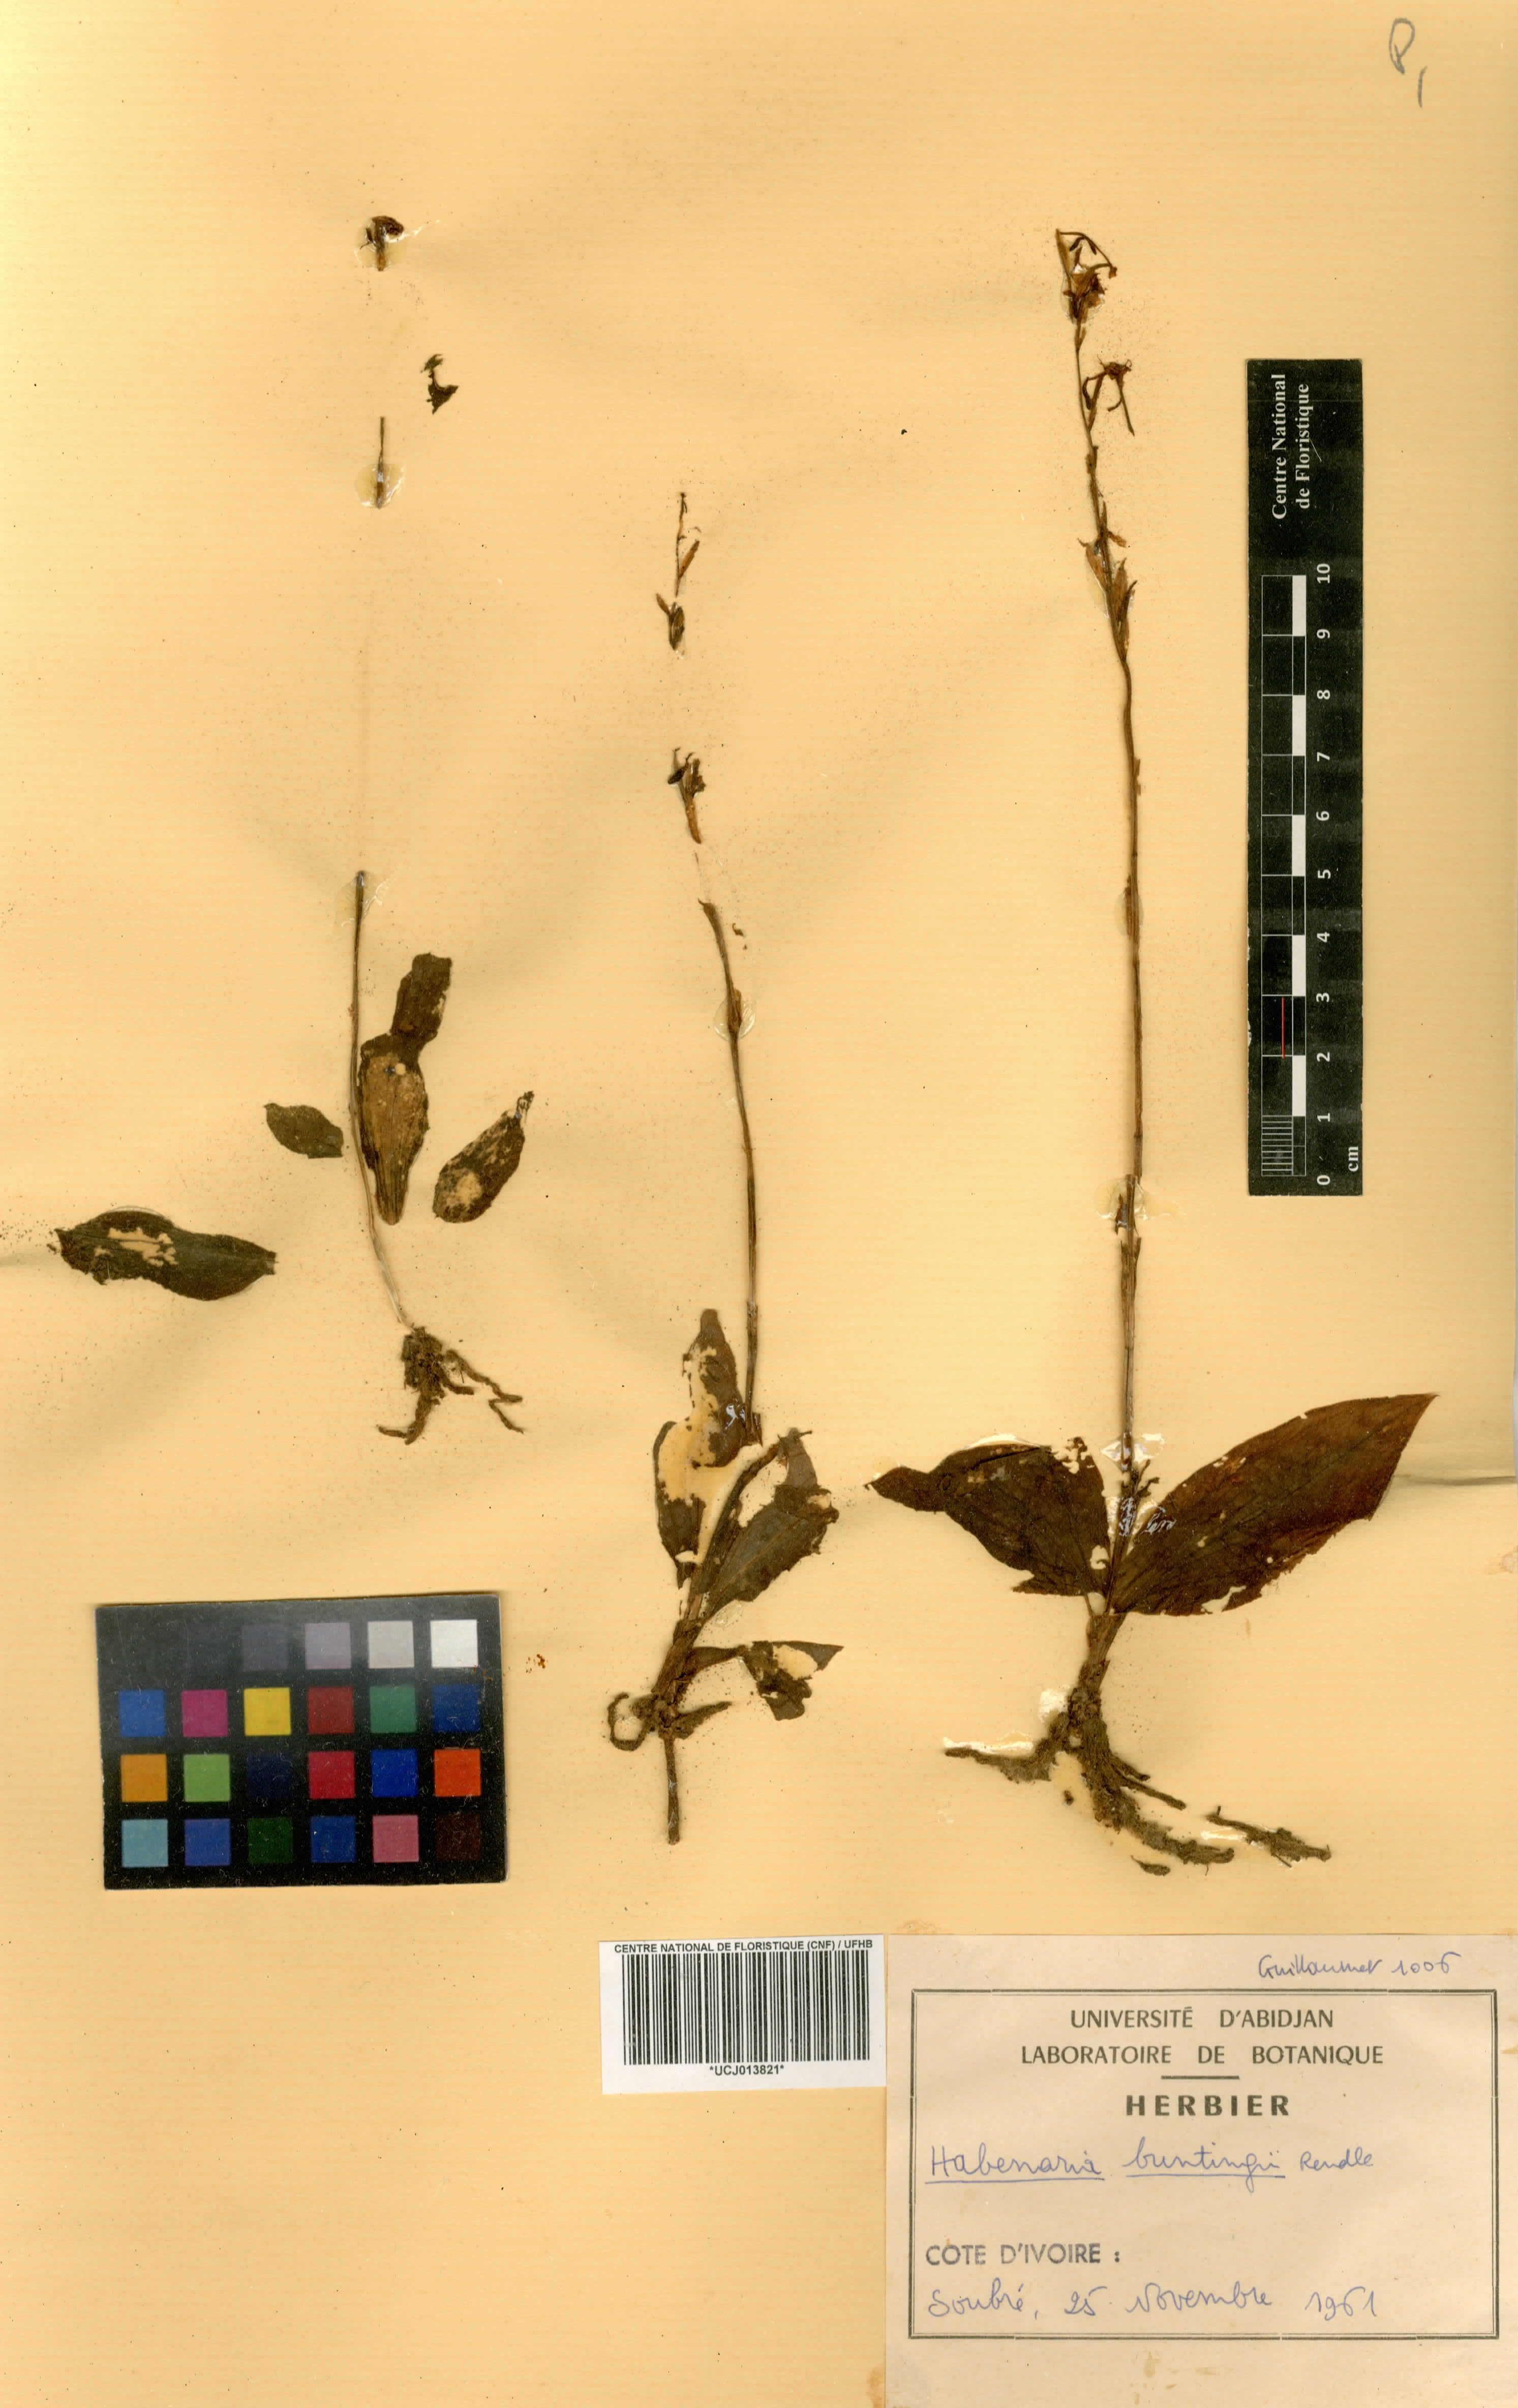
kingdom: Plantae
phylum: Tracheophyta
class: Liliopsida
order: Asparagales
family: Orchidaceae
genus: Habenaria
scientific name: Habenaria physuriformis
